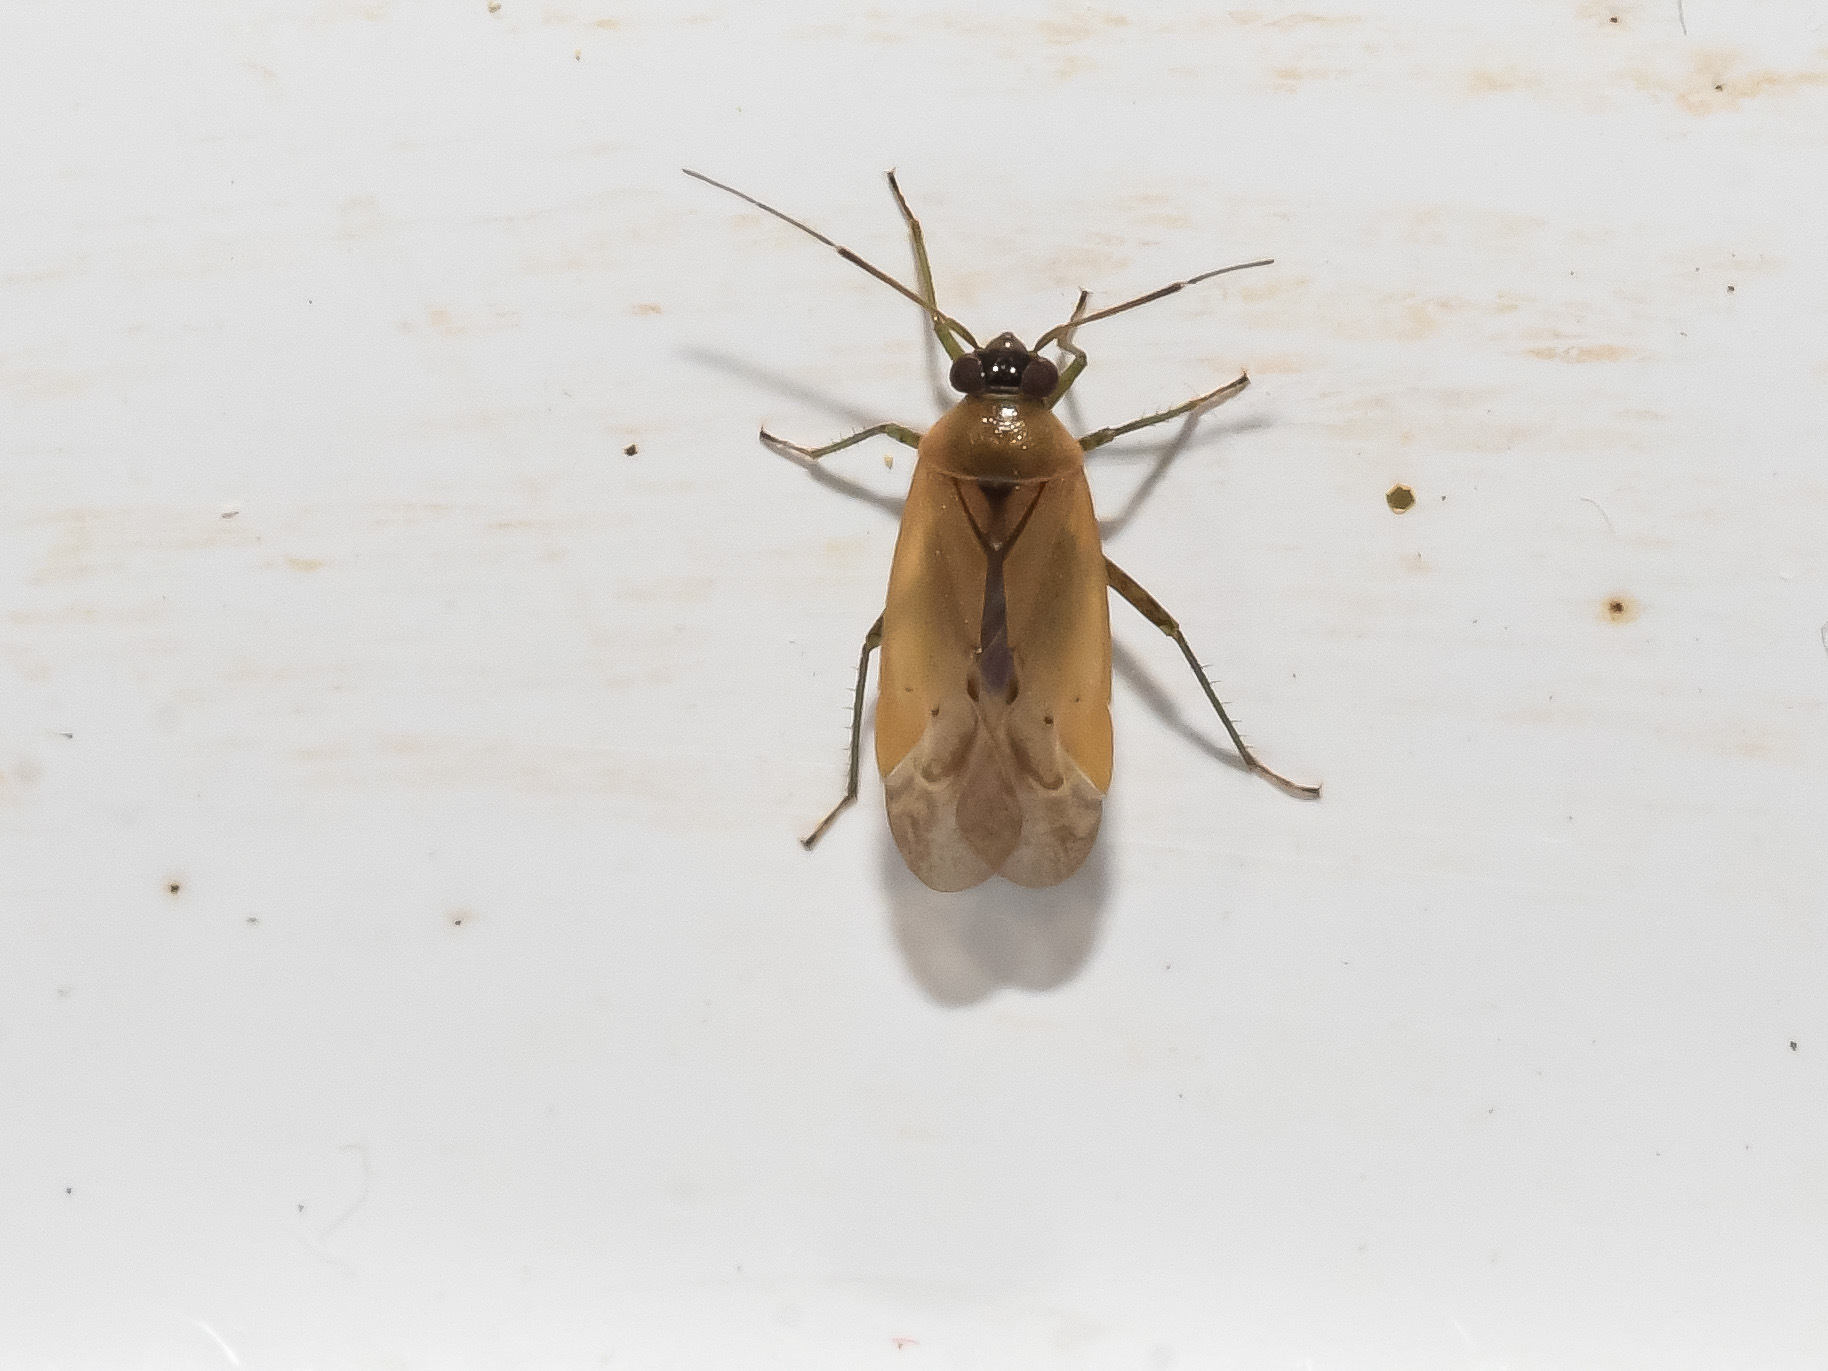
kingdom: Animalia
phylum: Arthropoda
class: Insecta
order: Hemiptera
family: Miridae
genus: Pinalitus
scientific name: Pinalitus atomarius
